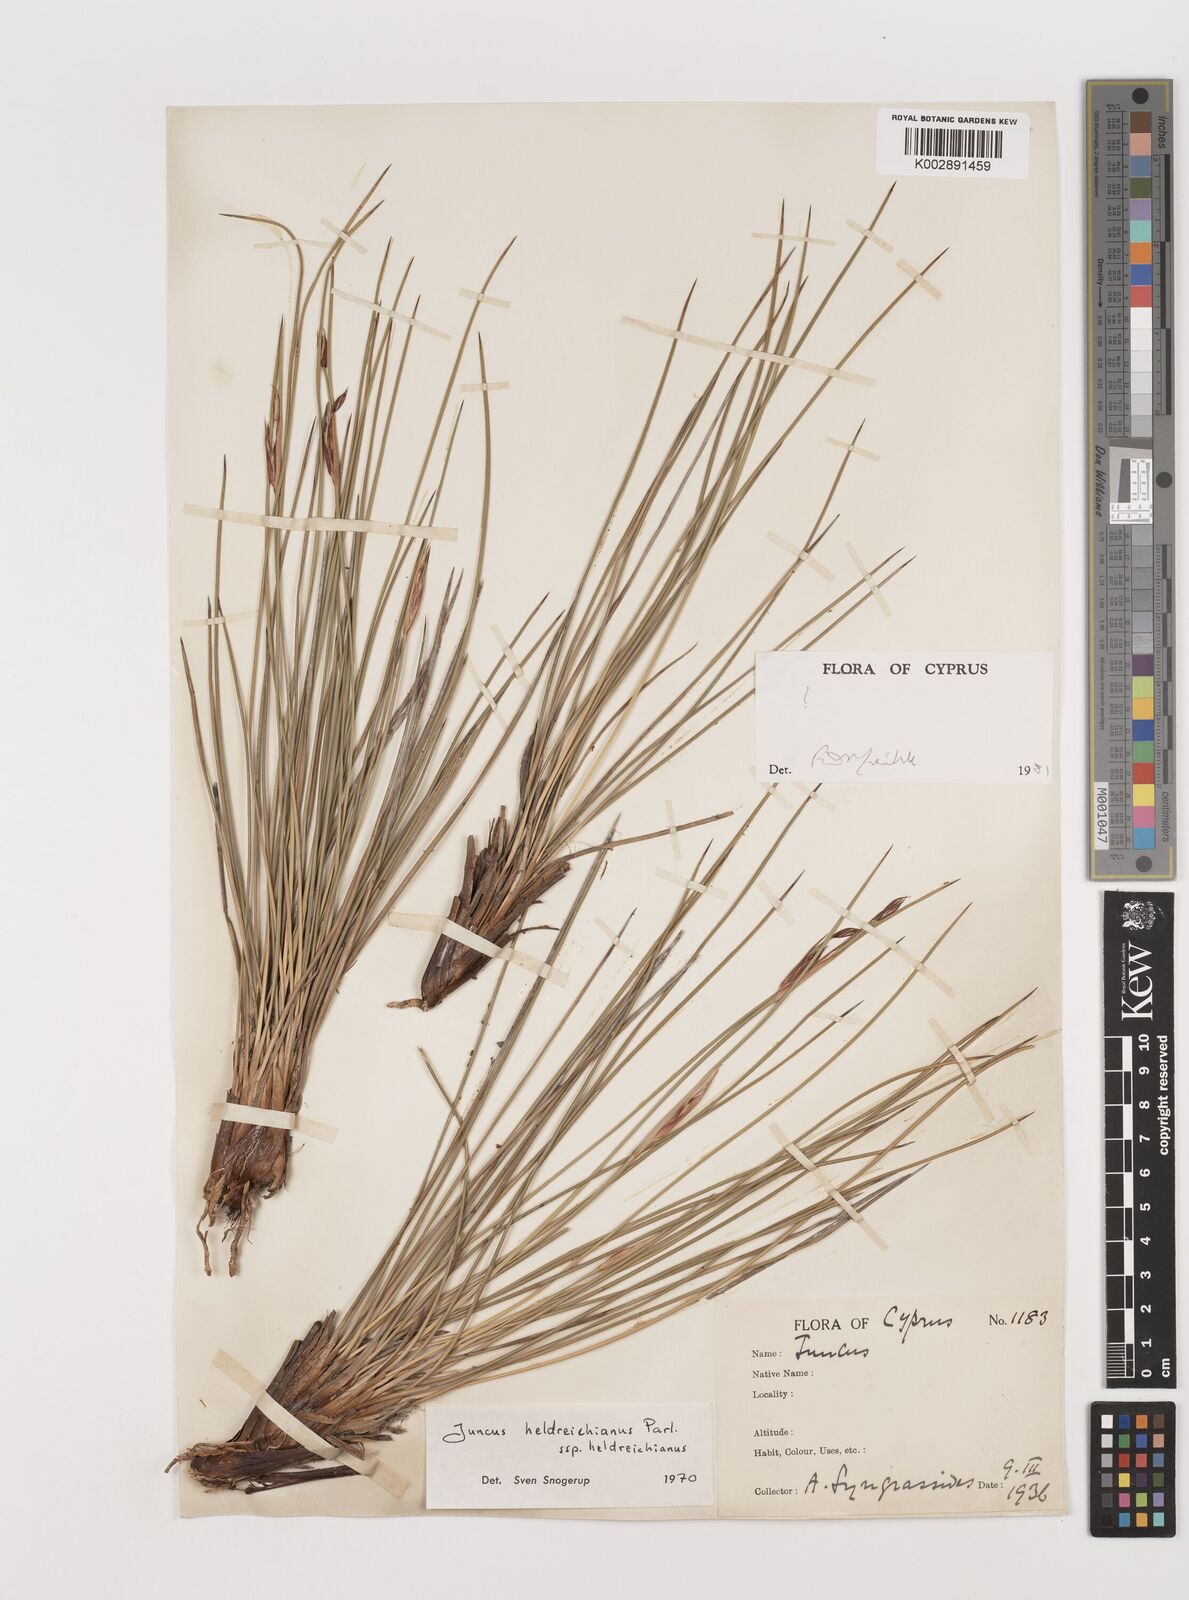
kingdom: Plantae
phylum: Tracheophyta
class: Liliopsida
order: Poales
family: Juncaceae
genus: Juncus
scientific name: Juncus heldreichianus
